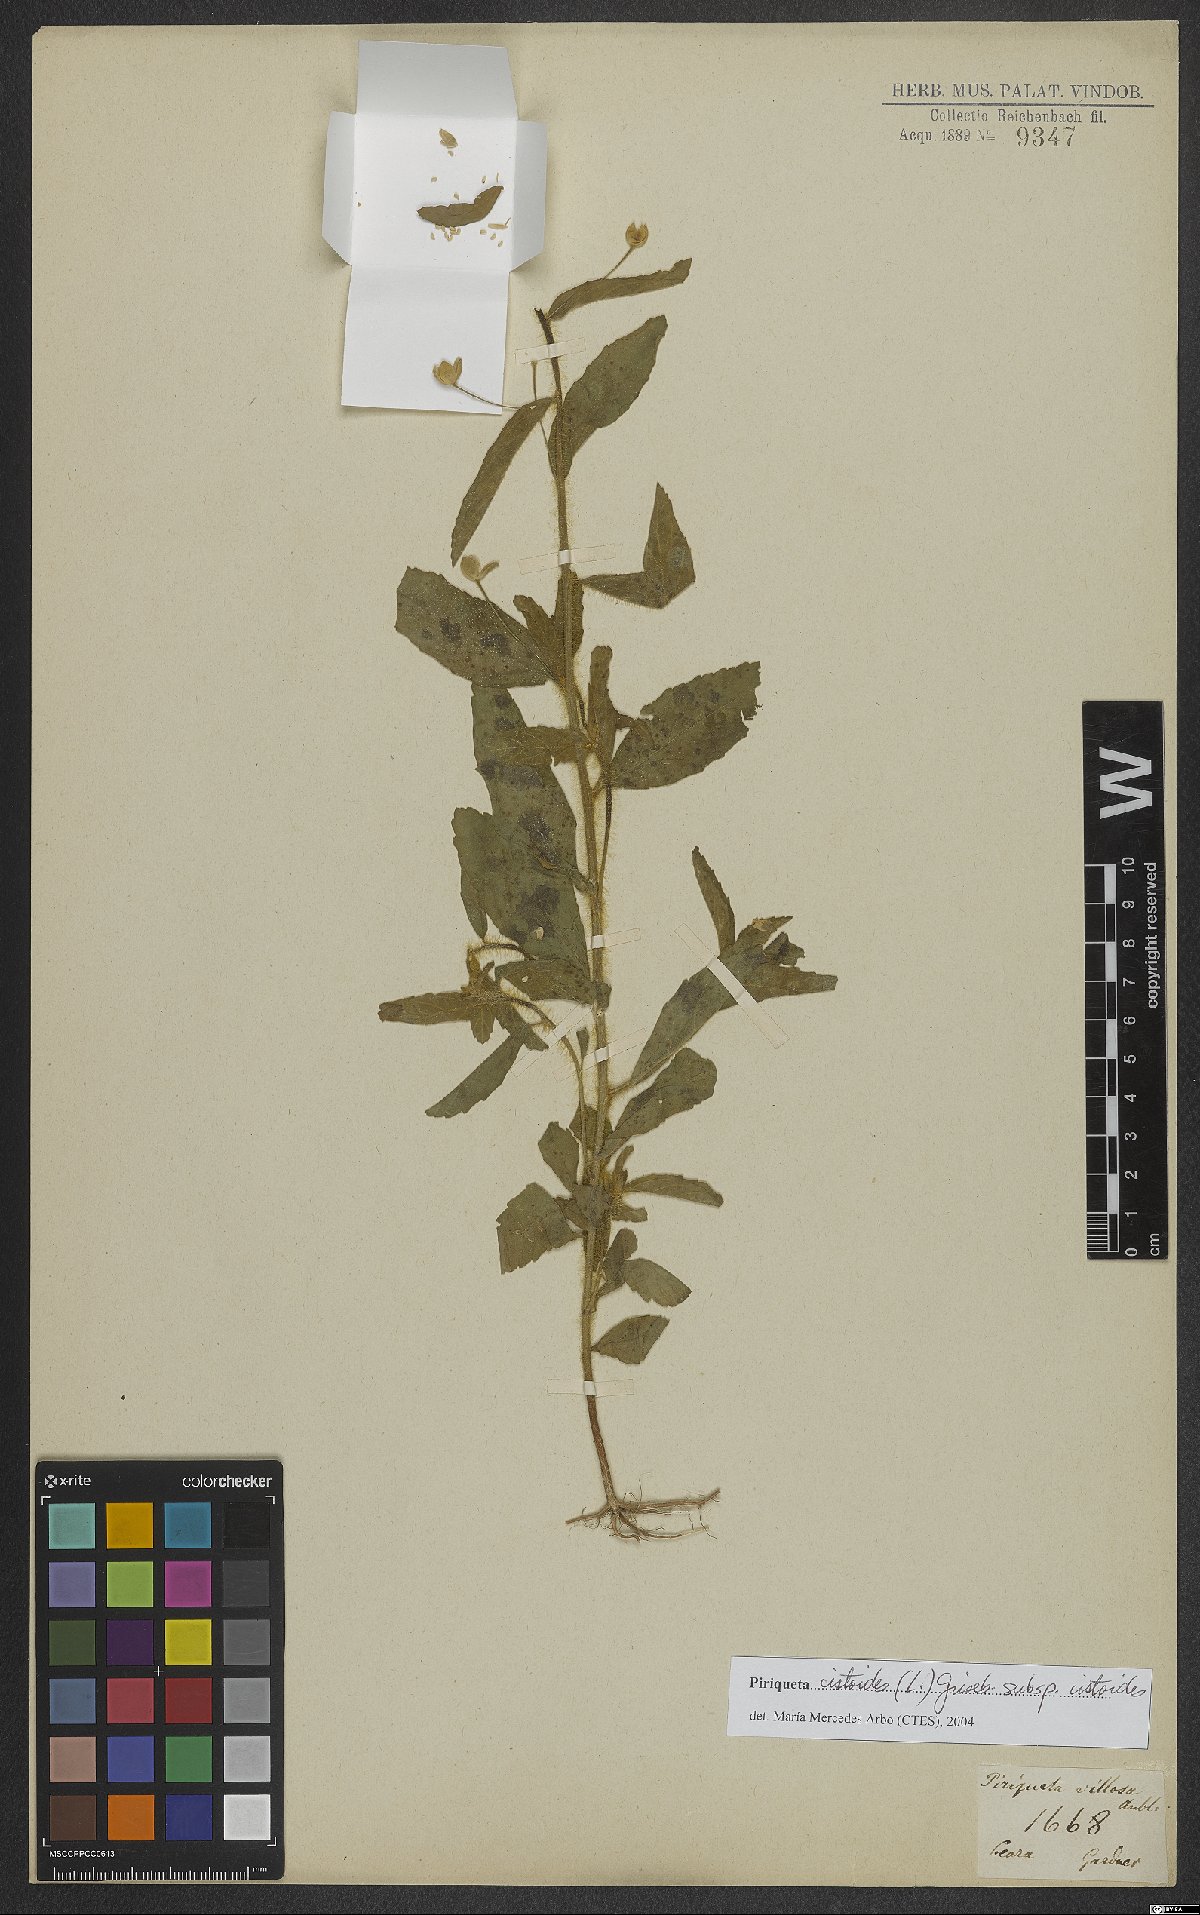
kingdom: Plantae
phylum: Tracheophyta
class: Magnoliopsida
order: Malpighiales
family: Turneraceae
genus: Piriqueta
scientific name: Piriqueta cistoides
